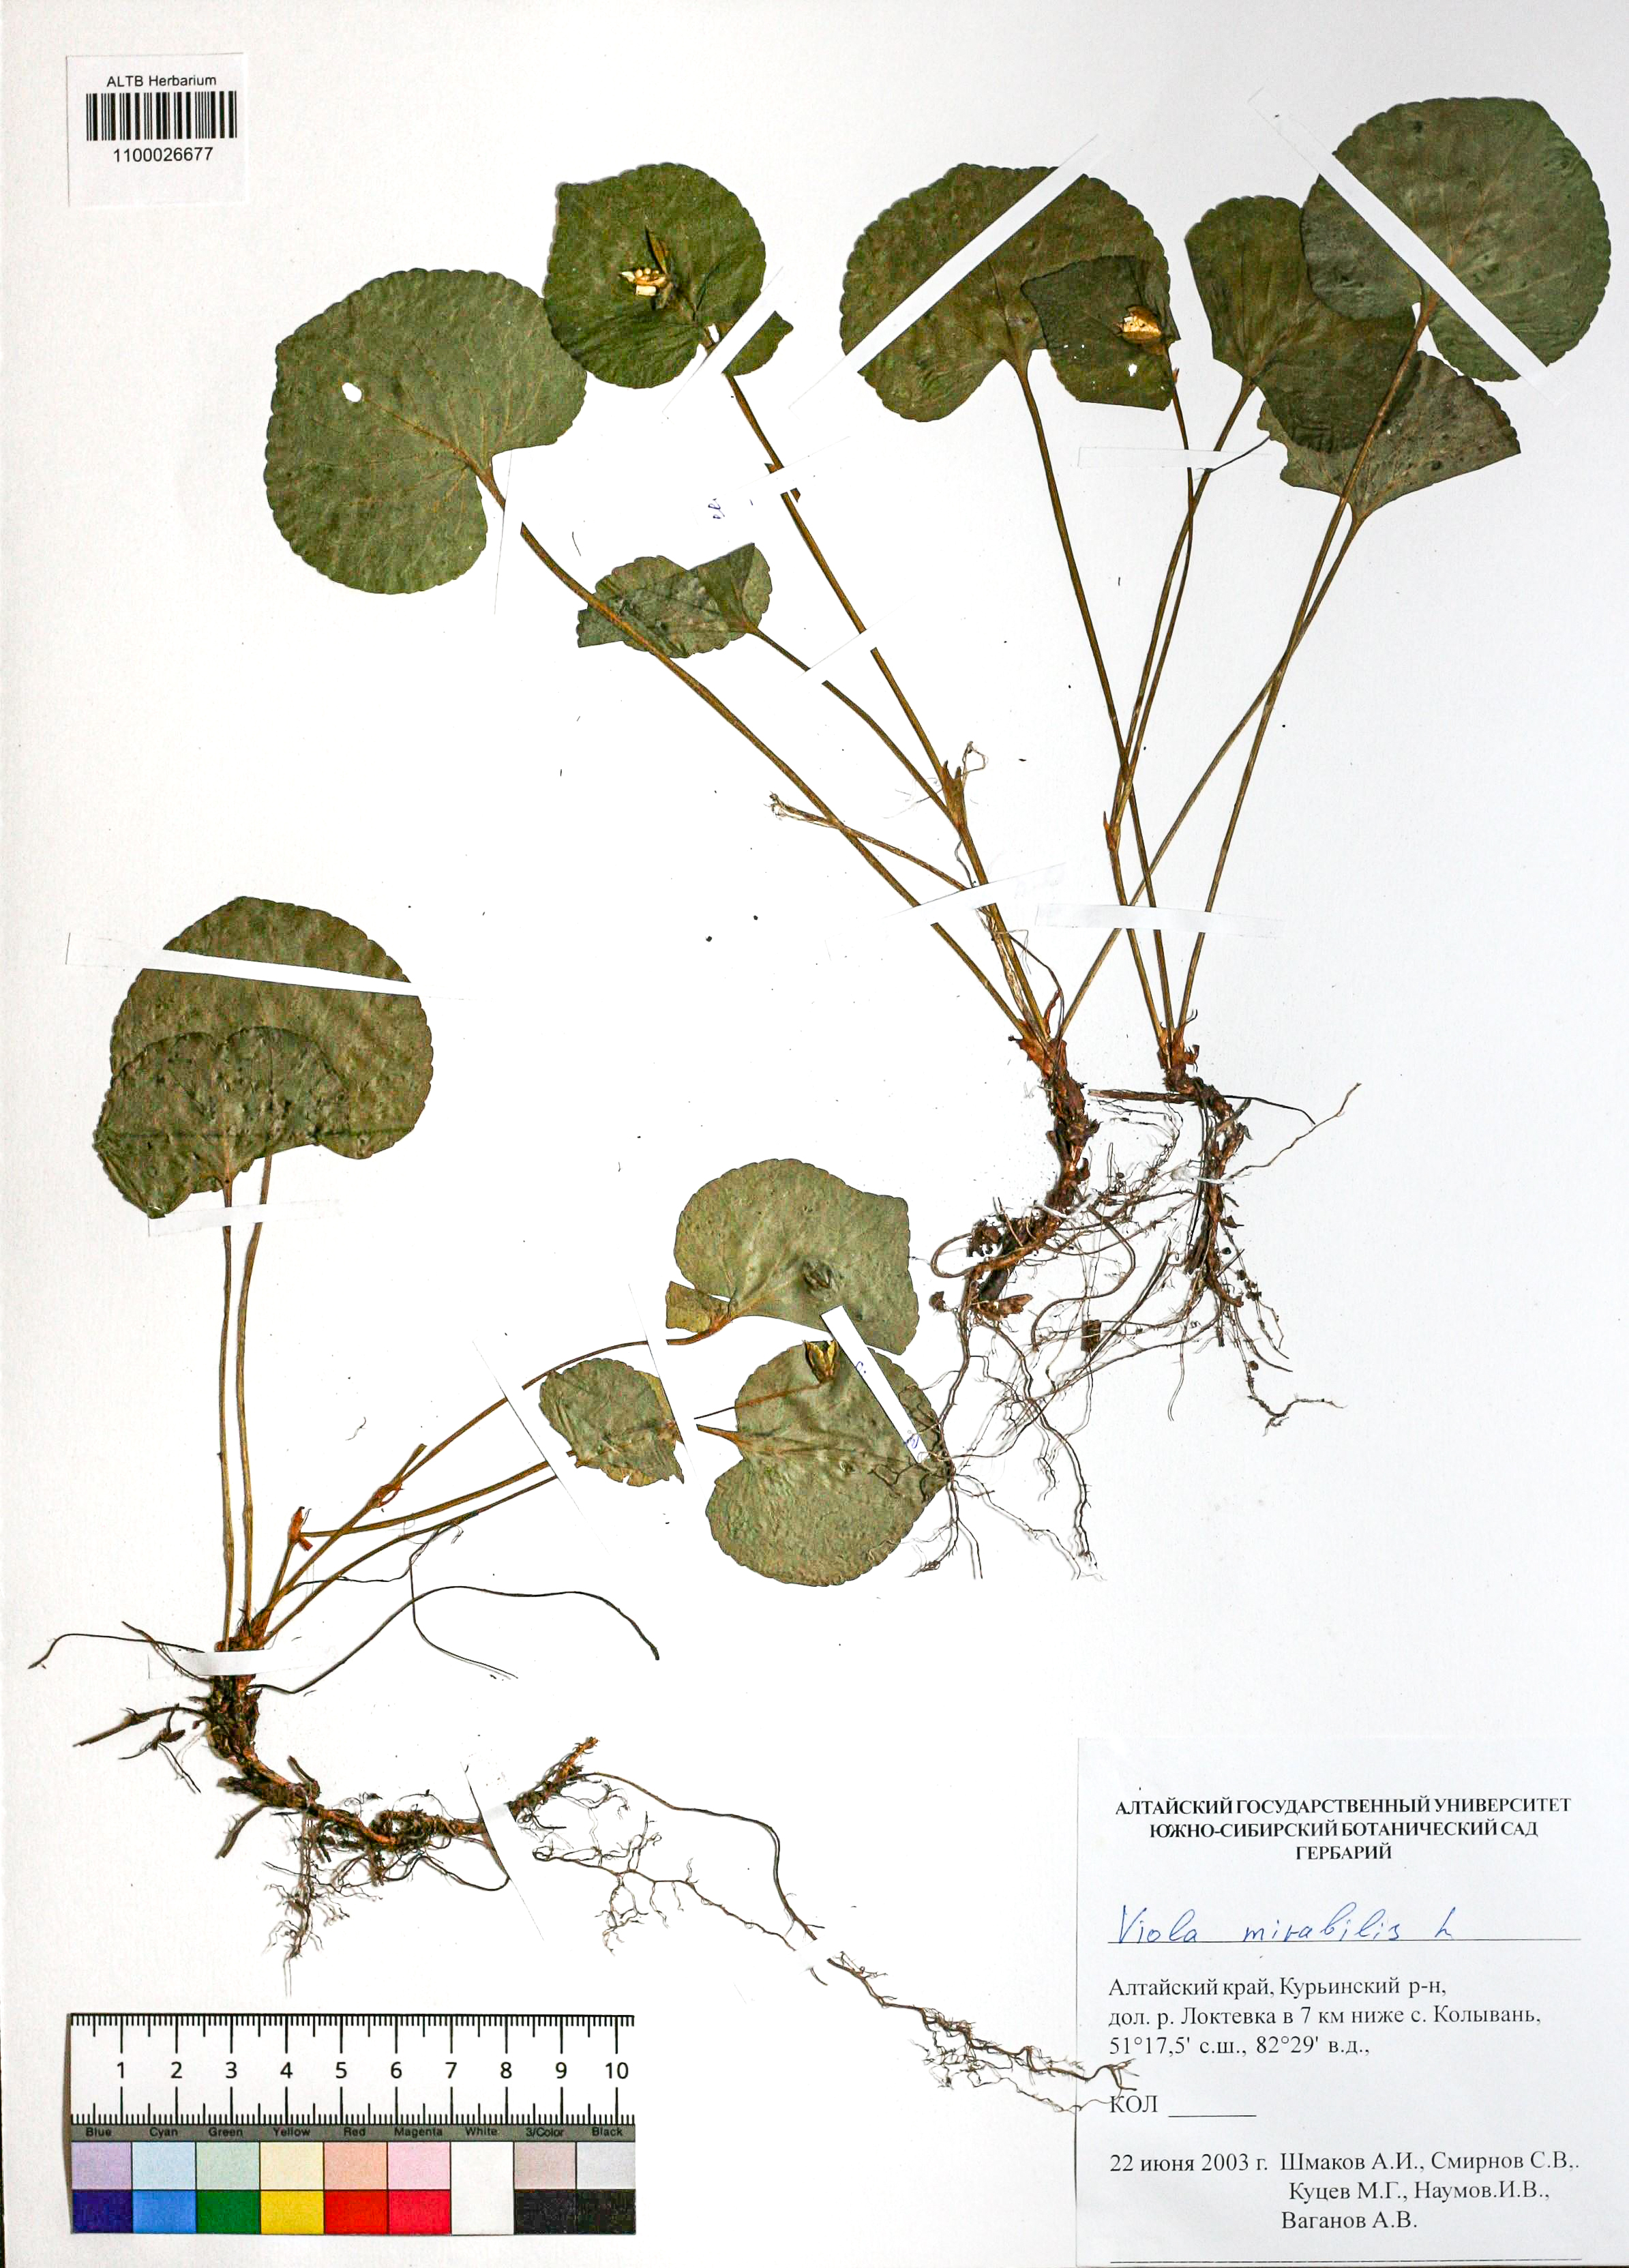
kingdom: Plantae
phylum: Tracheophyta
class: Magnoliopsida
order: Malpighiales
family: Violaceae
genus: Viola
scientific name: Viola mirabilis
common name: Wonder violet
